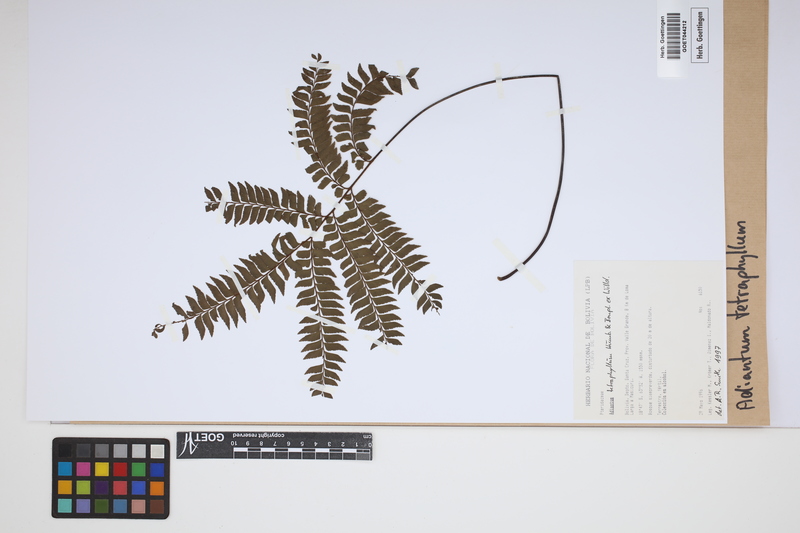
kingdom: Plantae
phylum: Tracheophyta
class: Polypodiopsida
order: Polypodiales
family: Pteridaceae
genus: Adiantum
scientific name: Adiantum tetraphyllum
